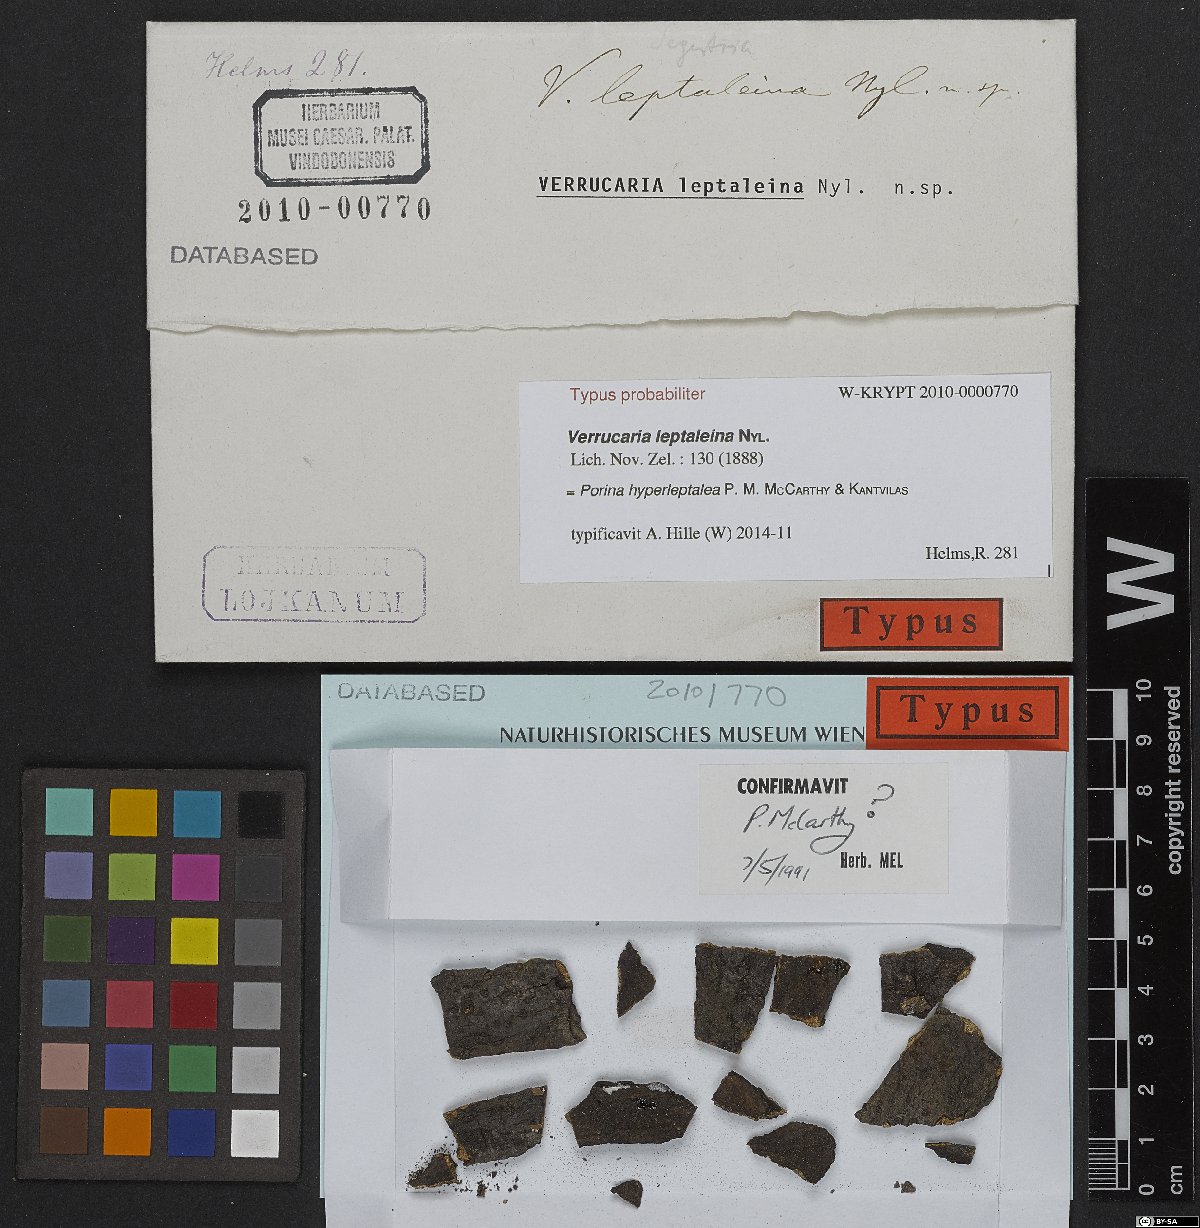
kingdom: Fungi
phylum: Ascomycota
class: Lecanoromycetes
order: Pertusariales
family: Pertusariaceae
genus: Porina
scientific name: Porina hyperleptalea
